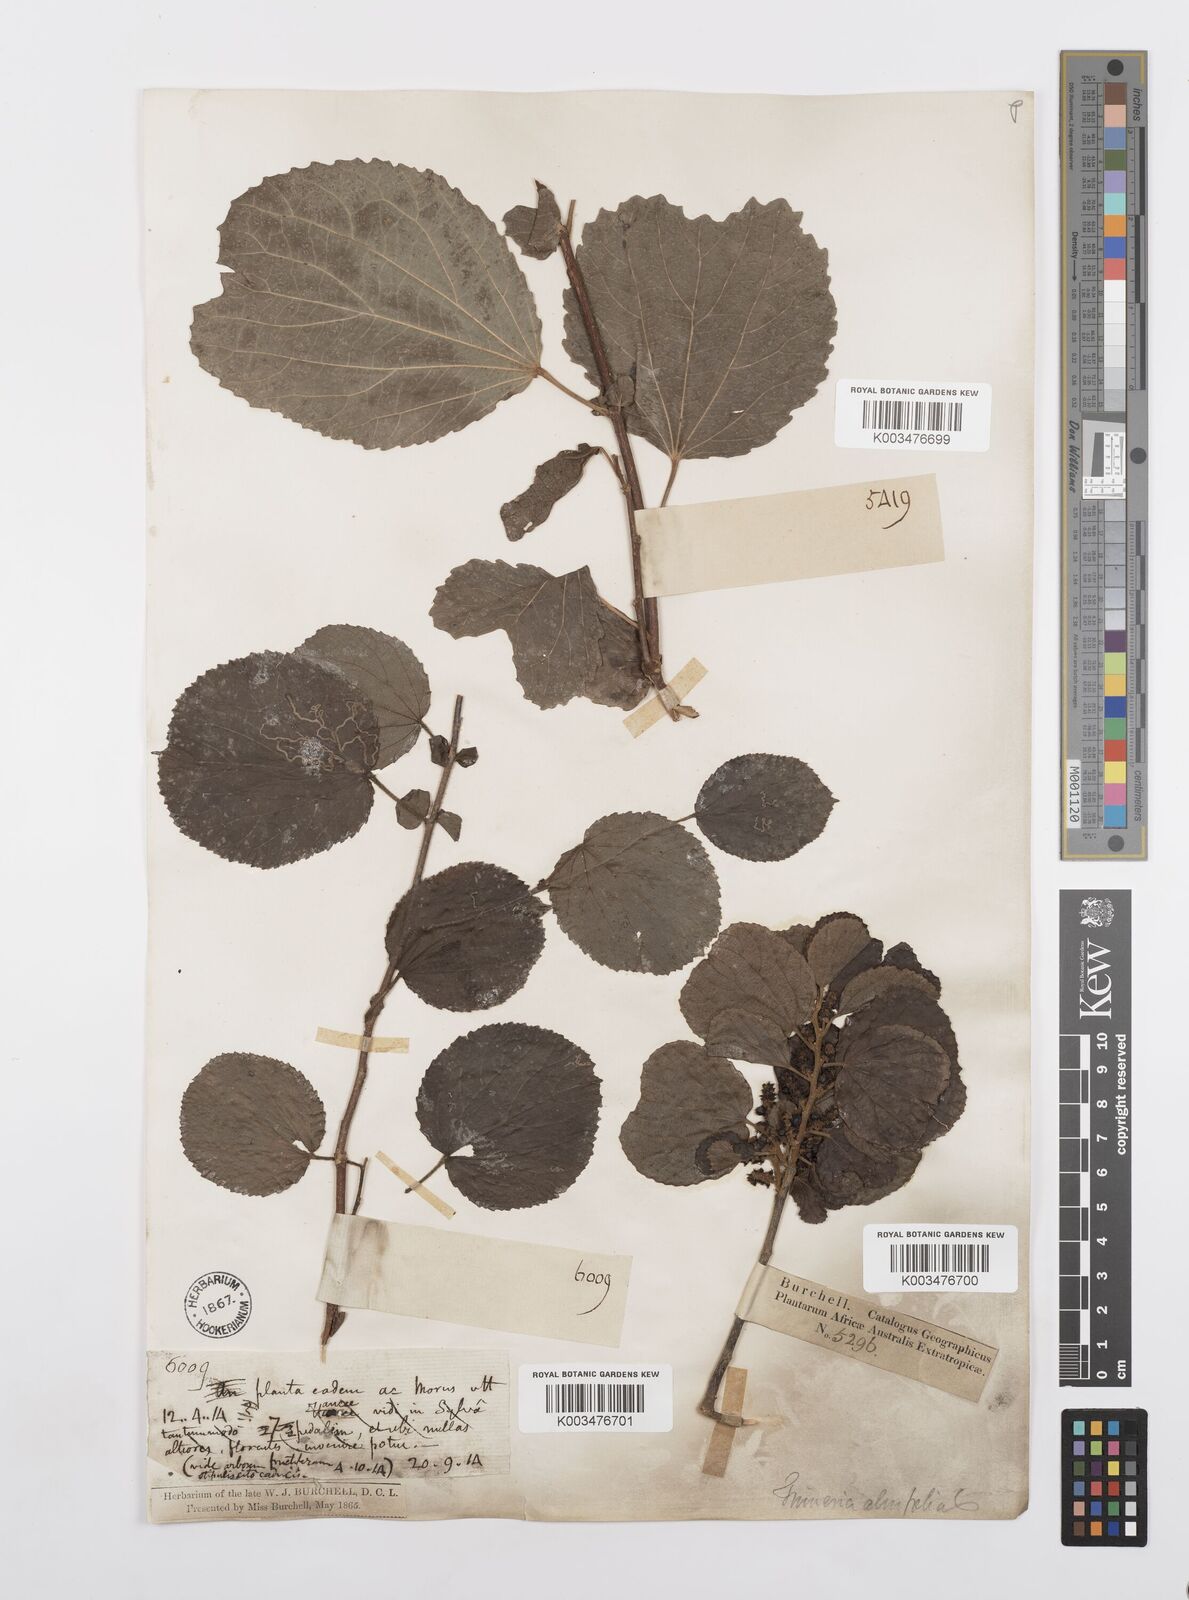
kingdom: Plantae
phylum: Tracheophyta
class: Magnoliopsida
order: Malpighiales
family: Salicaceae
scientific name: Salicaceae
